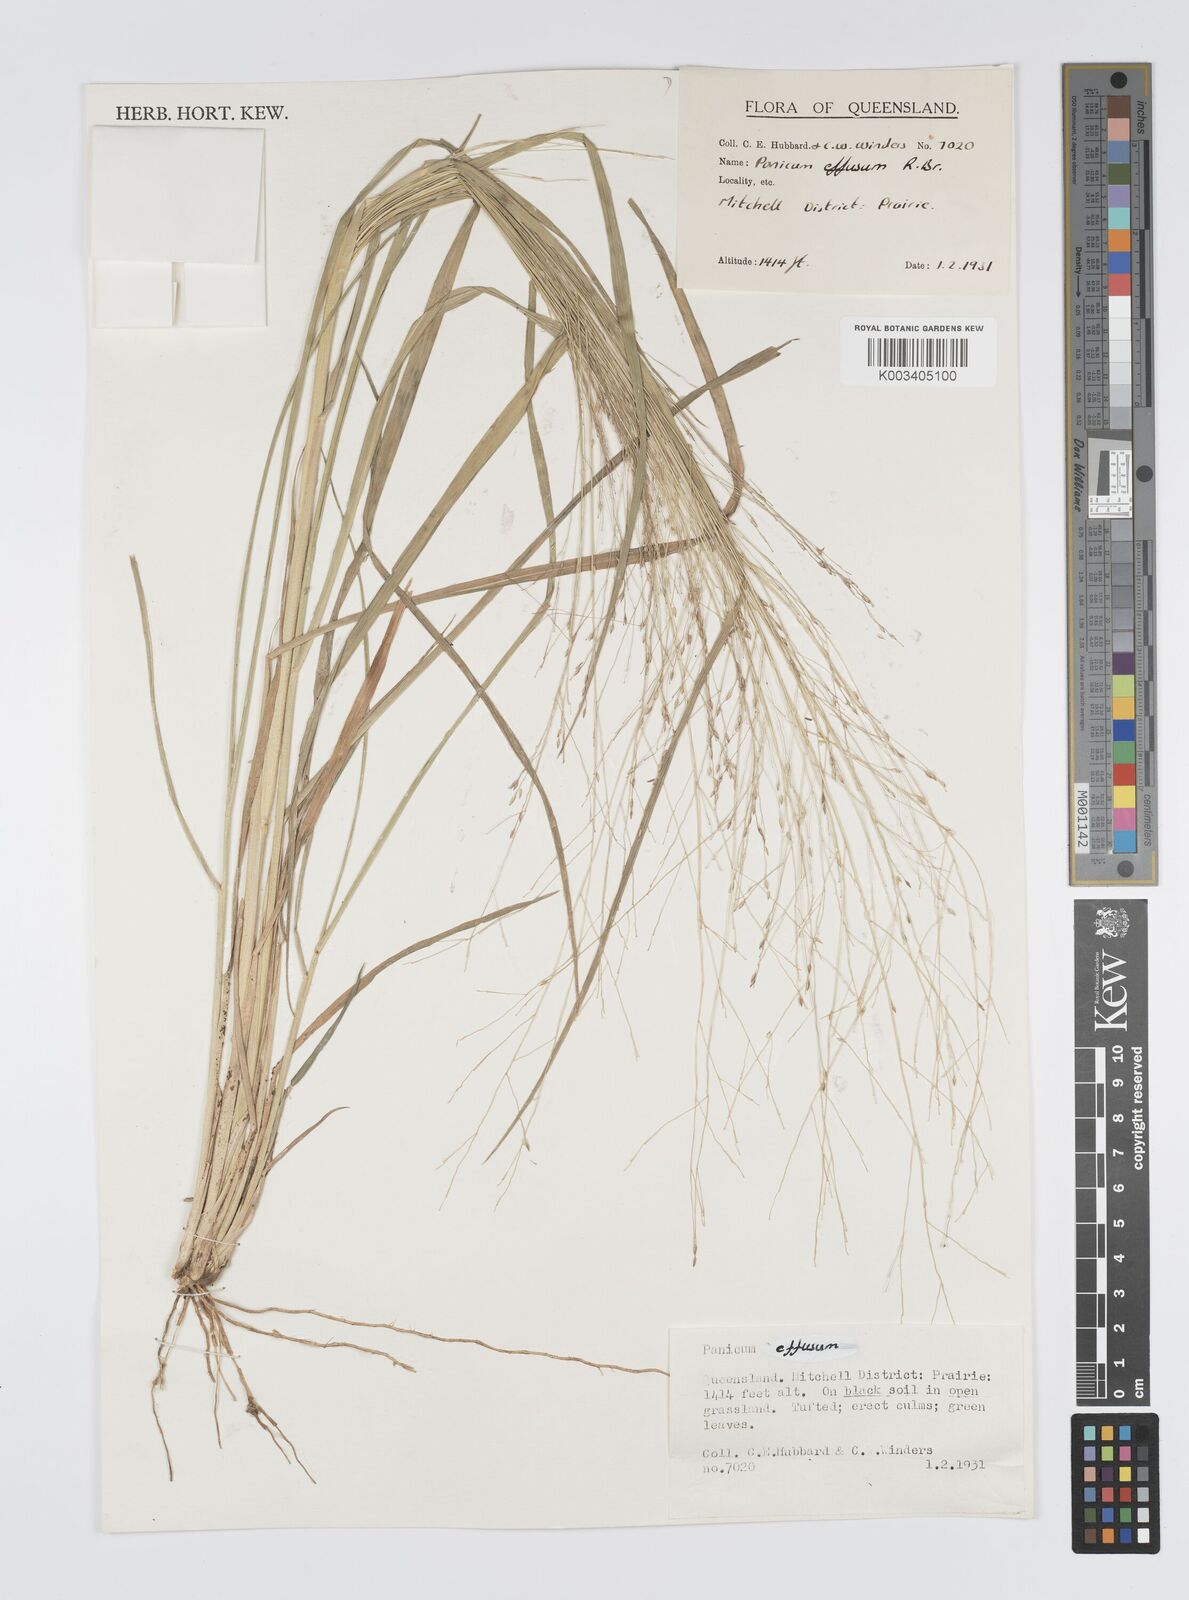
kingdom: Plantae
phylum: Tracheophyta
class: Liliopsida
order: Poales
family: Poaceae
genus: Panicum
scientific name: Panicum effusum
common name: Hairy panic grass
